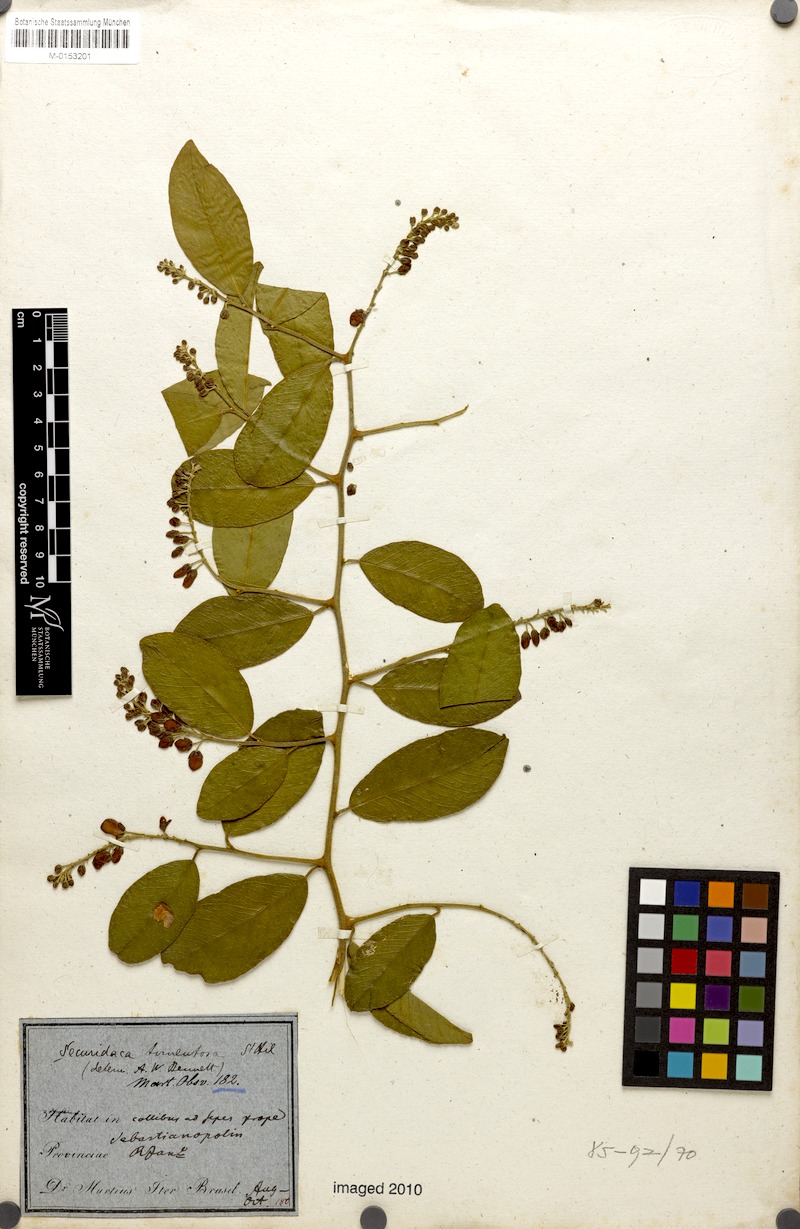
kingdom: Plantae
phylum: Tracheophyta
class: Magnoliopsida
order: Fabales
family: Polygalaceae
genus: Securidaca
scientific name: Securidaca tomentosa
